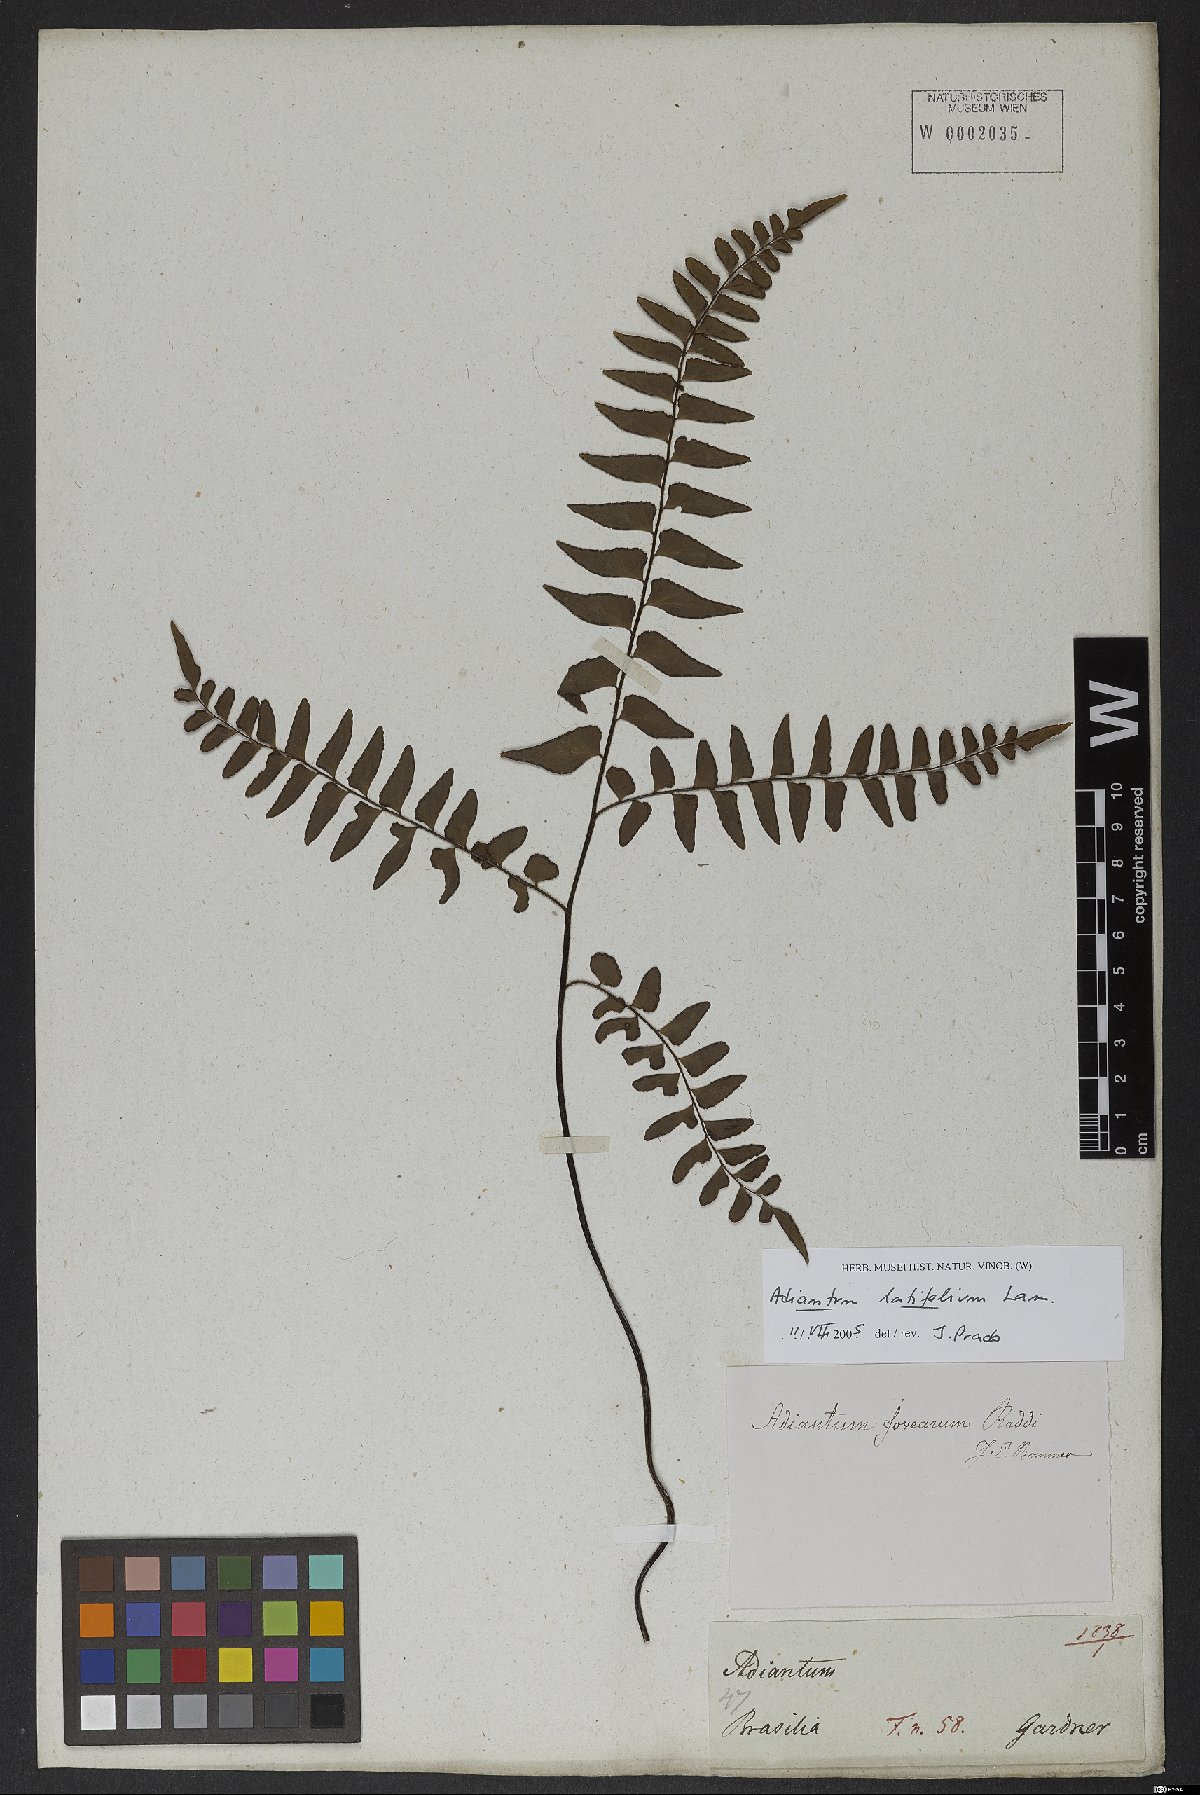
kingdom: Plantae
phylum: Tracheophyta
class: Polypodiopsida
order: Polypodiales
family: Pteridaceae
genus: Adiantum
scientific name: Adiantum latifolium
